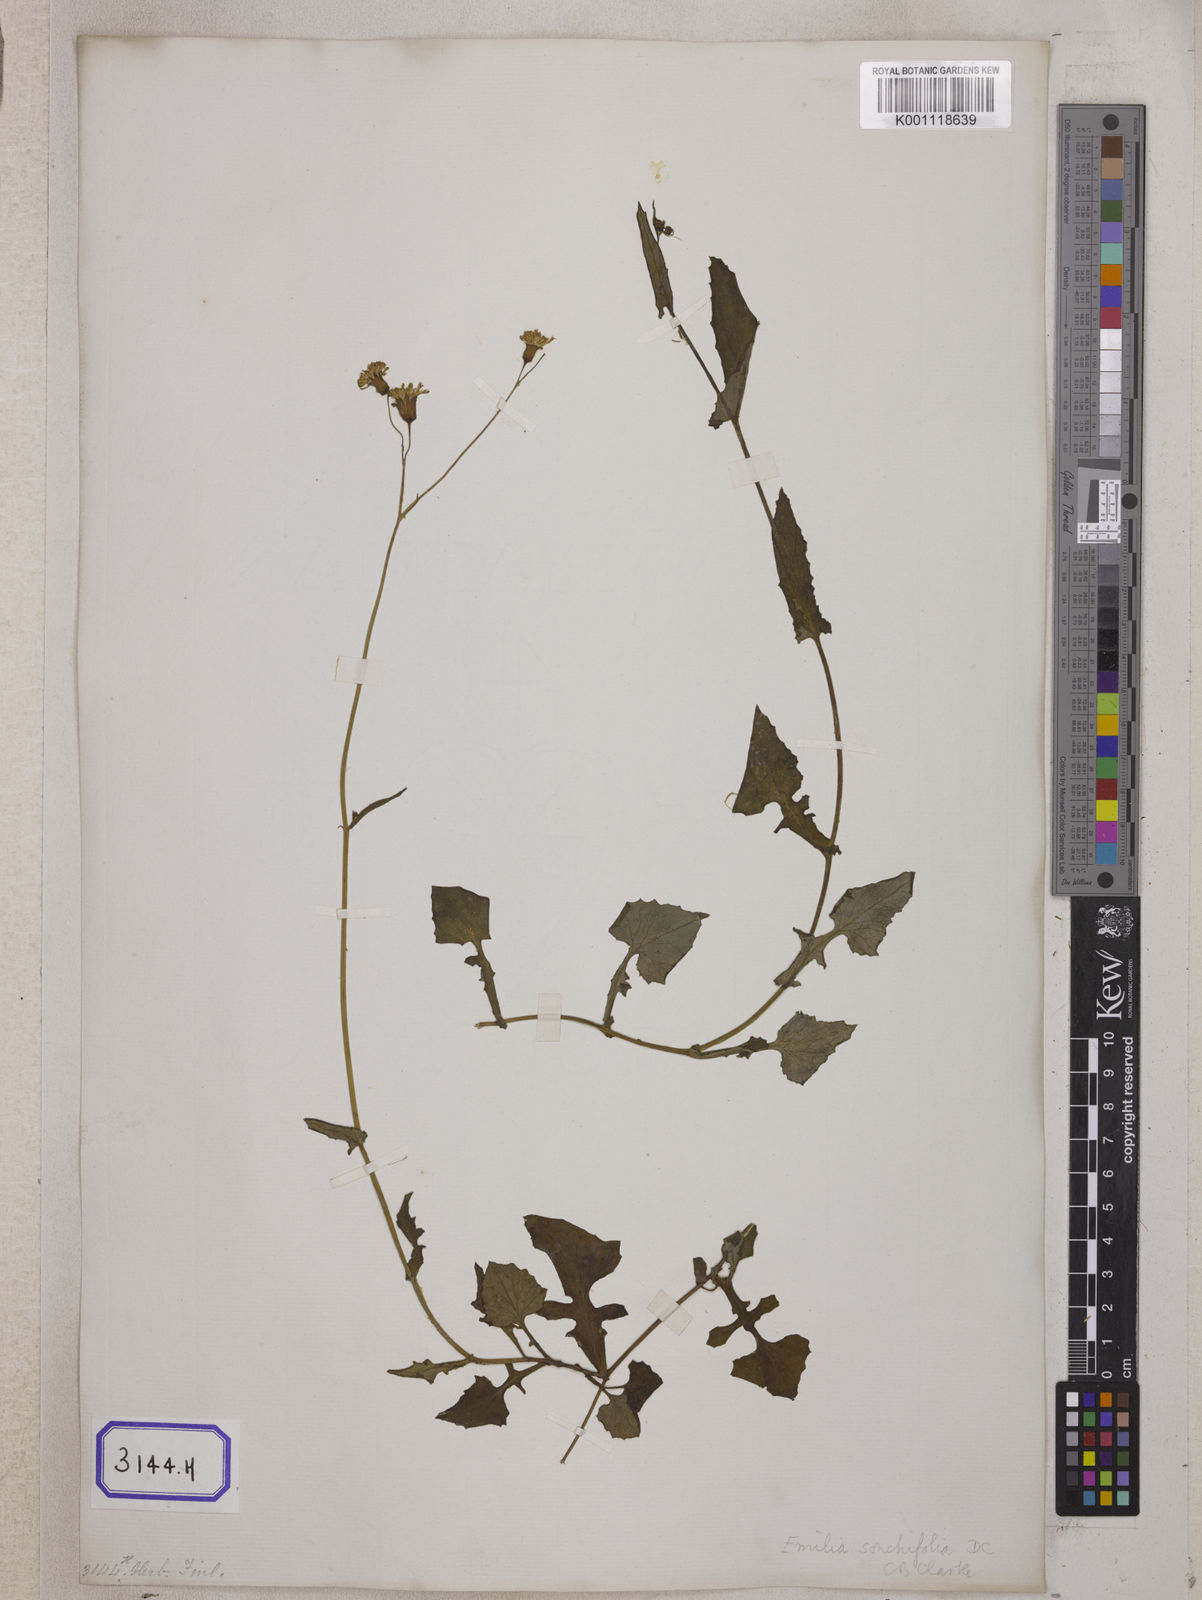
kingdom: Plantae
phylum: Tracheophyta
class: Magnoliopsida
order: Asterales
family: Asteraceae
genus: Launaea
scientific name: Launaea remotiflora
